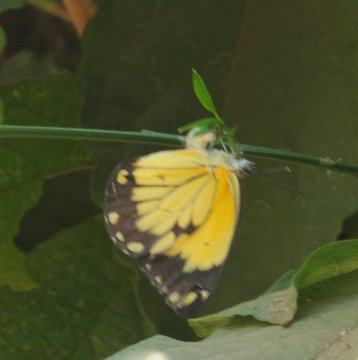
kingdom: Animalia
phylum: Arthropoda
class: Insecta
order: Lepidoptera
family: Pieridae
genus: Belenois
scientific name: Belenois creona
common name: African Caper
